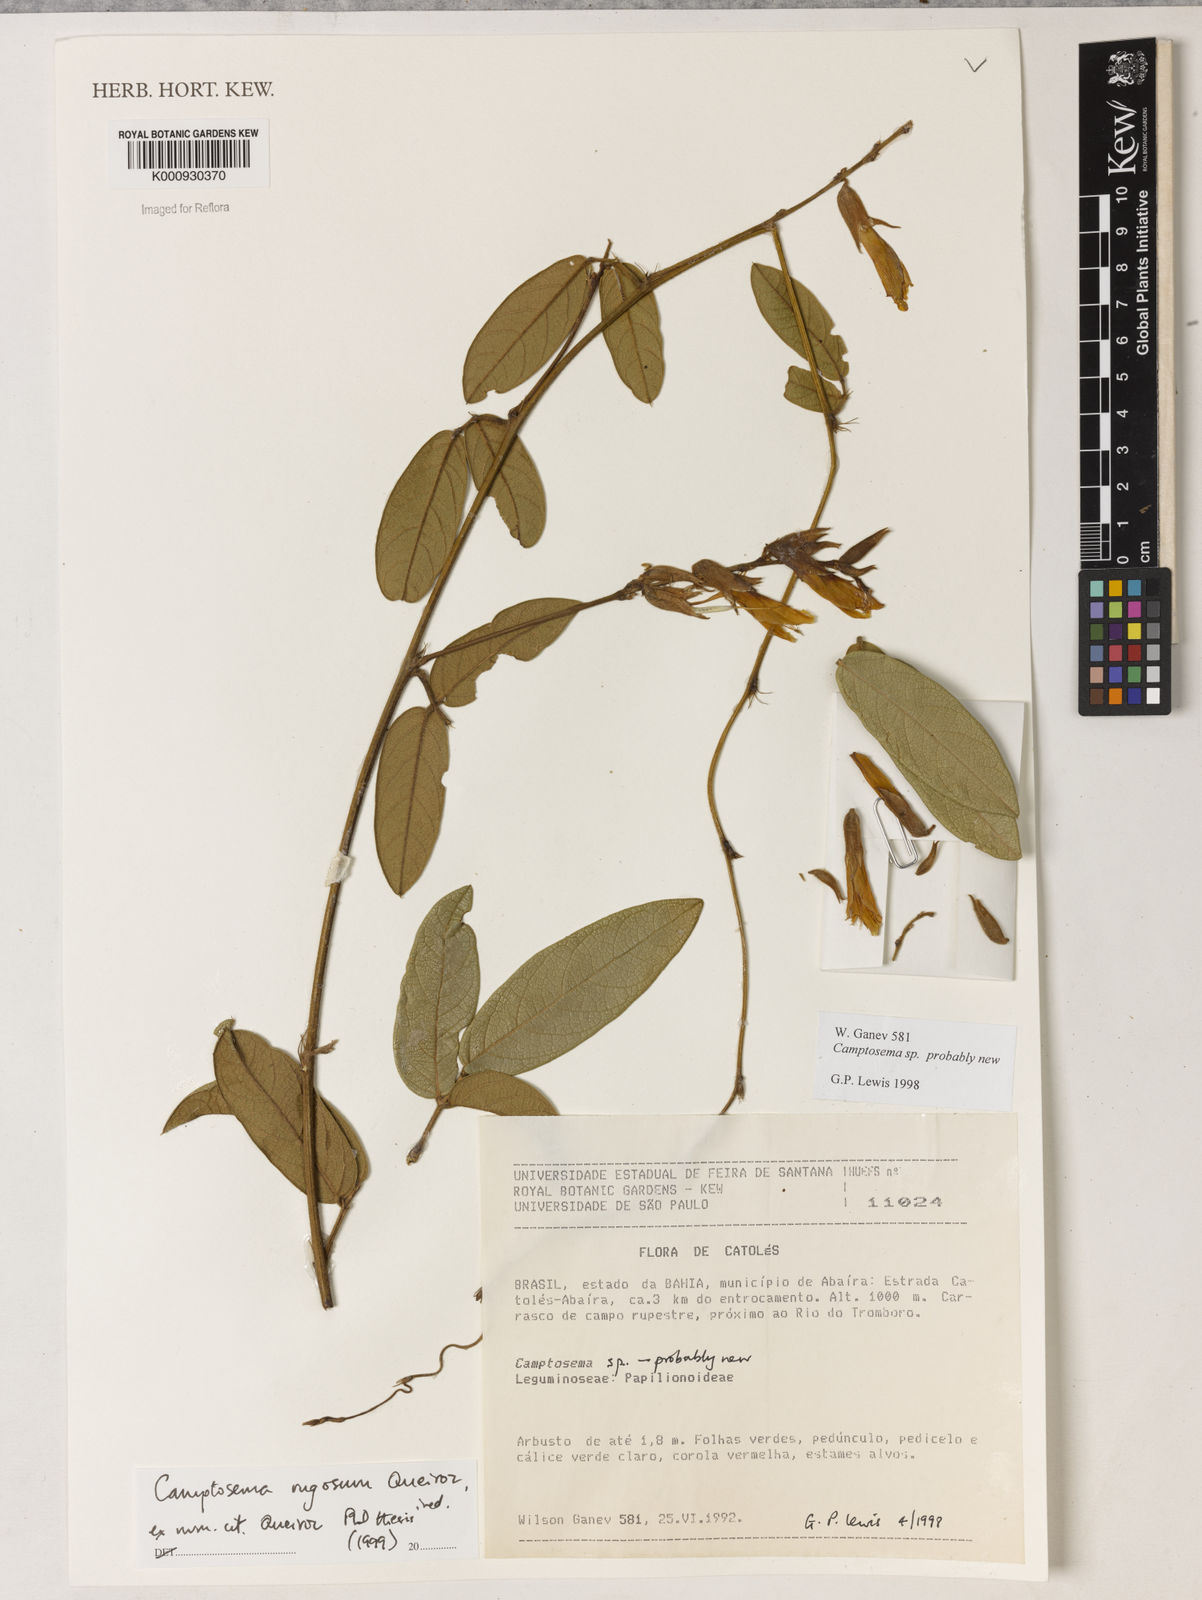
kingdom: Plantae
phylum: Tracheophyta
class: Magnoliopsida
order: Fabales
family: Fabaceae
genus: Camptosema
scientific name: Camptosema
